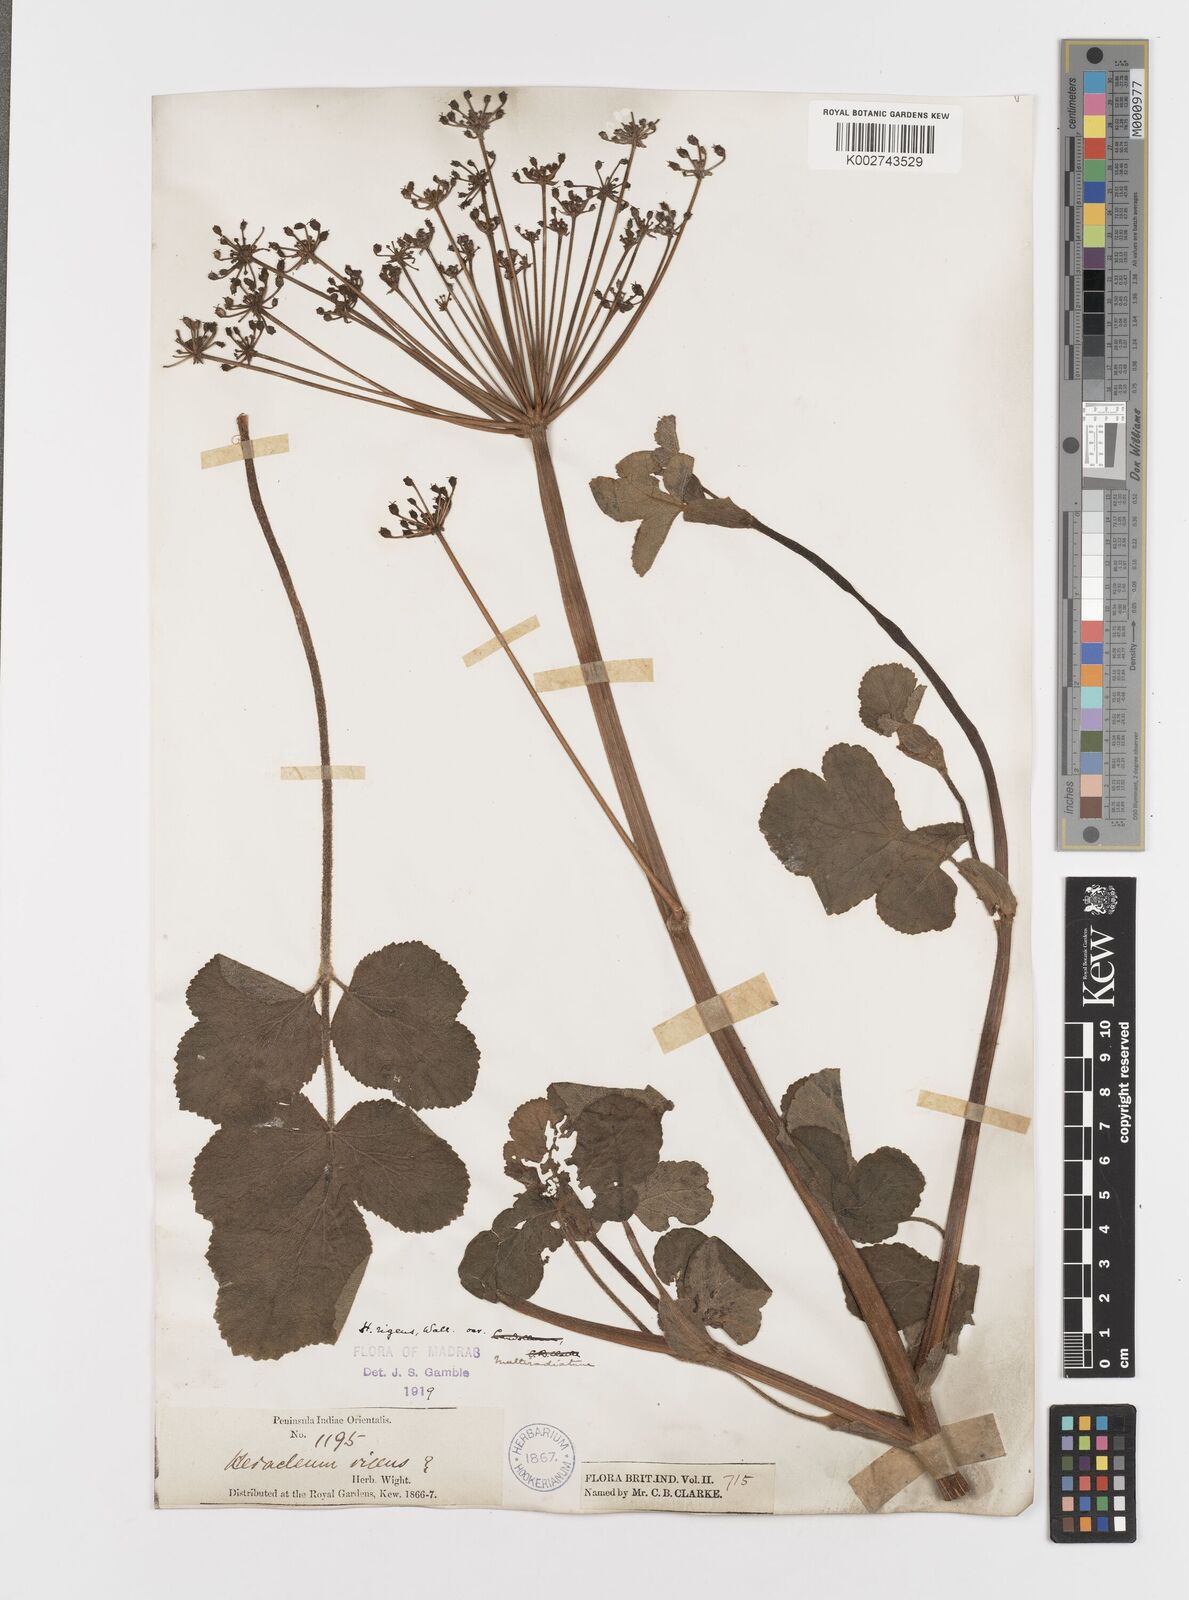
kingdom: Plantae
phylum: Tracheophyta
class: Magnoliopsida
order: Apiales
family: Apiaceae
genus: Tetrataenium
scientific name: Tetrataenium rigens
